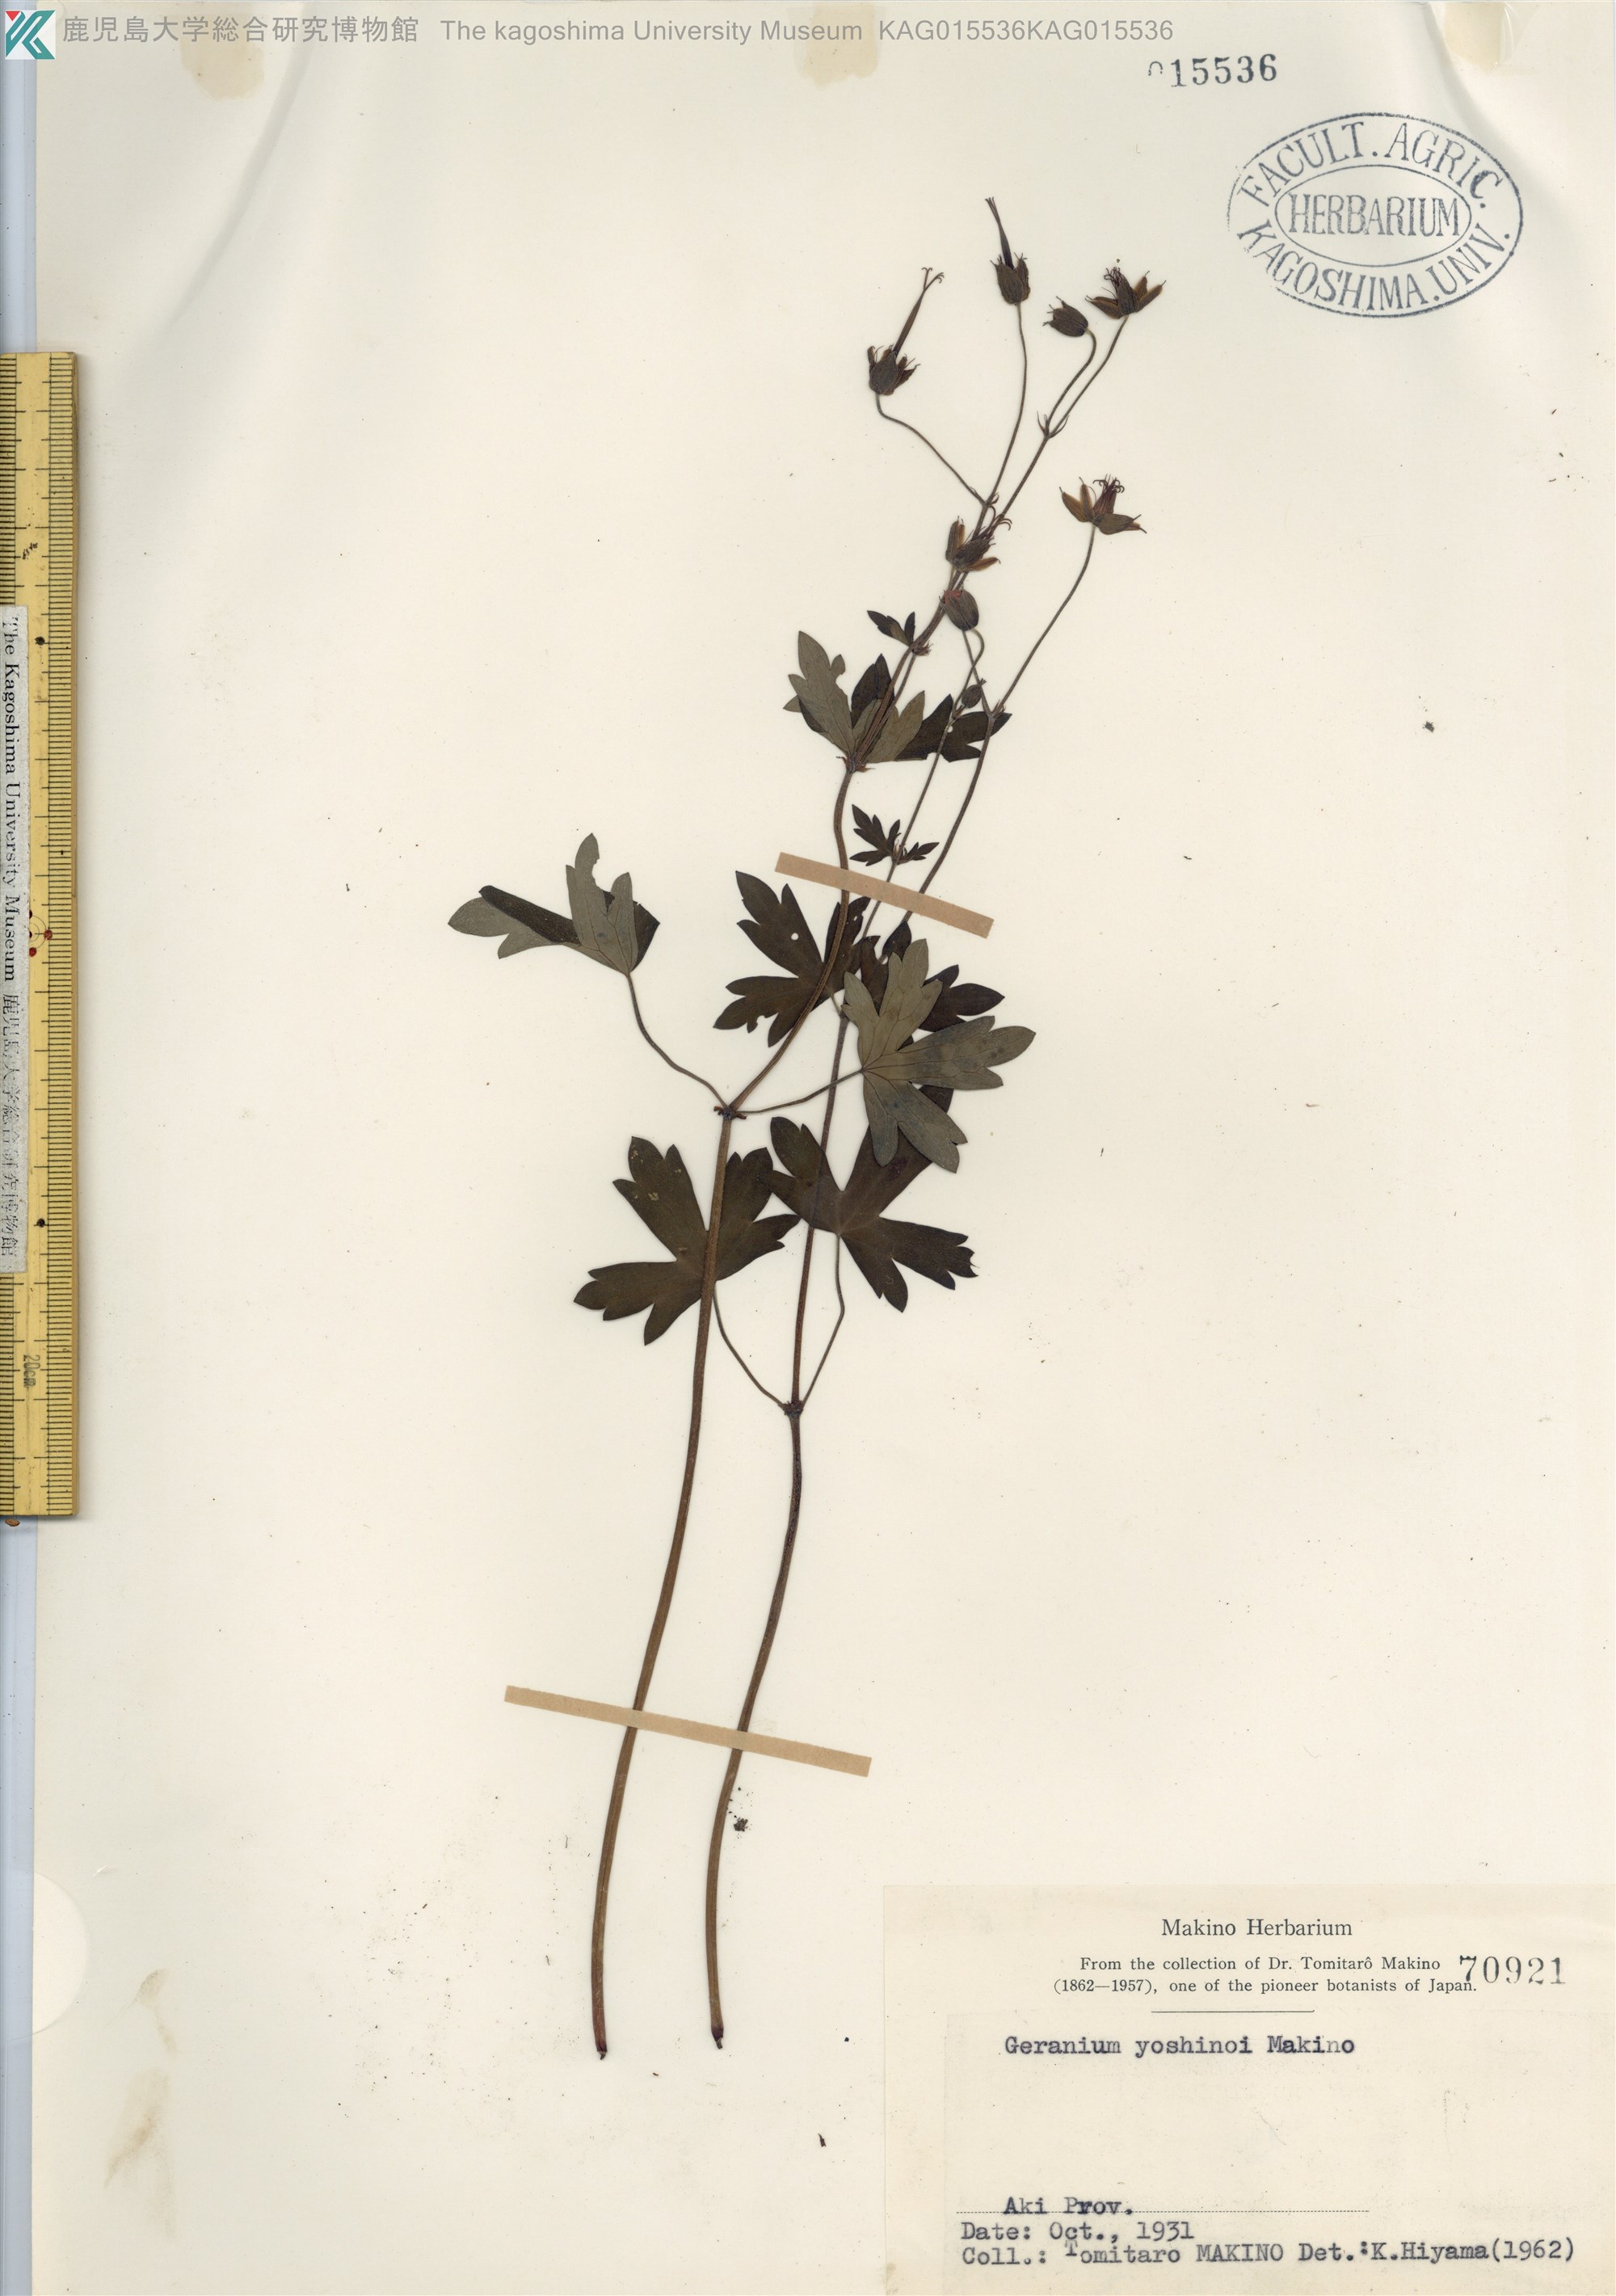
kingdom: Plantae
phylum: Tracheophyta
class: Magnoliopsida
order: Geraniales
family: Geraniaceae
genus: Geranium
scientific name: Geranium yoshinoi
